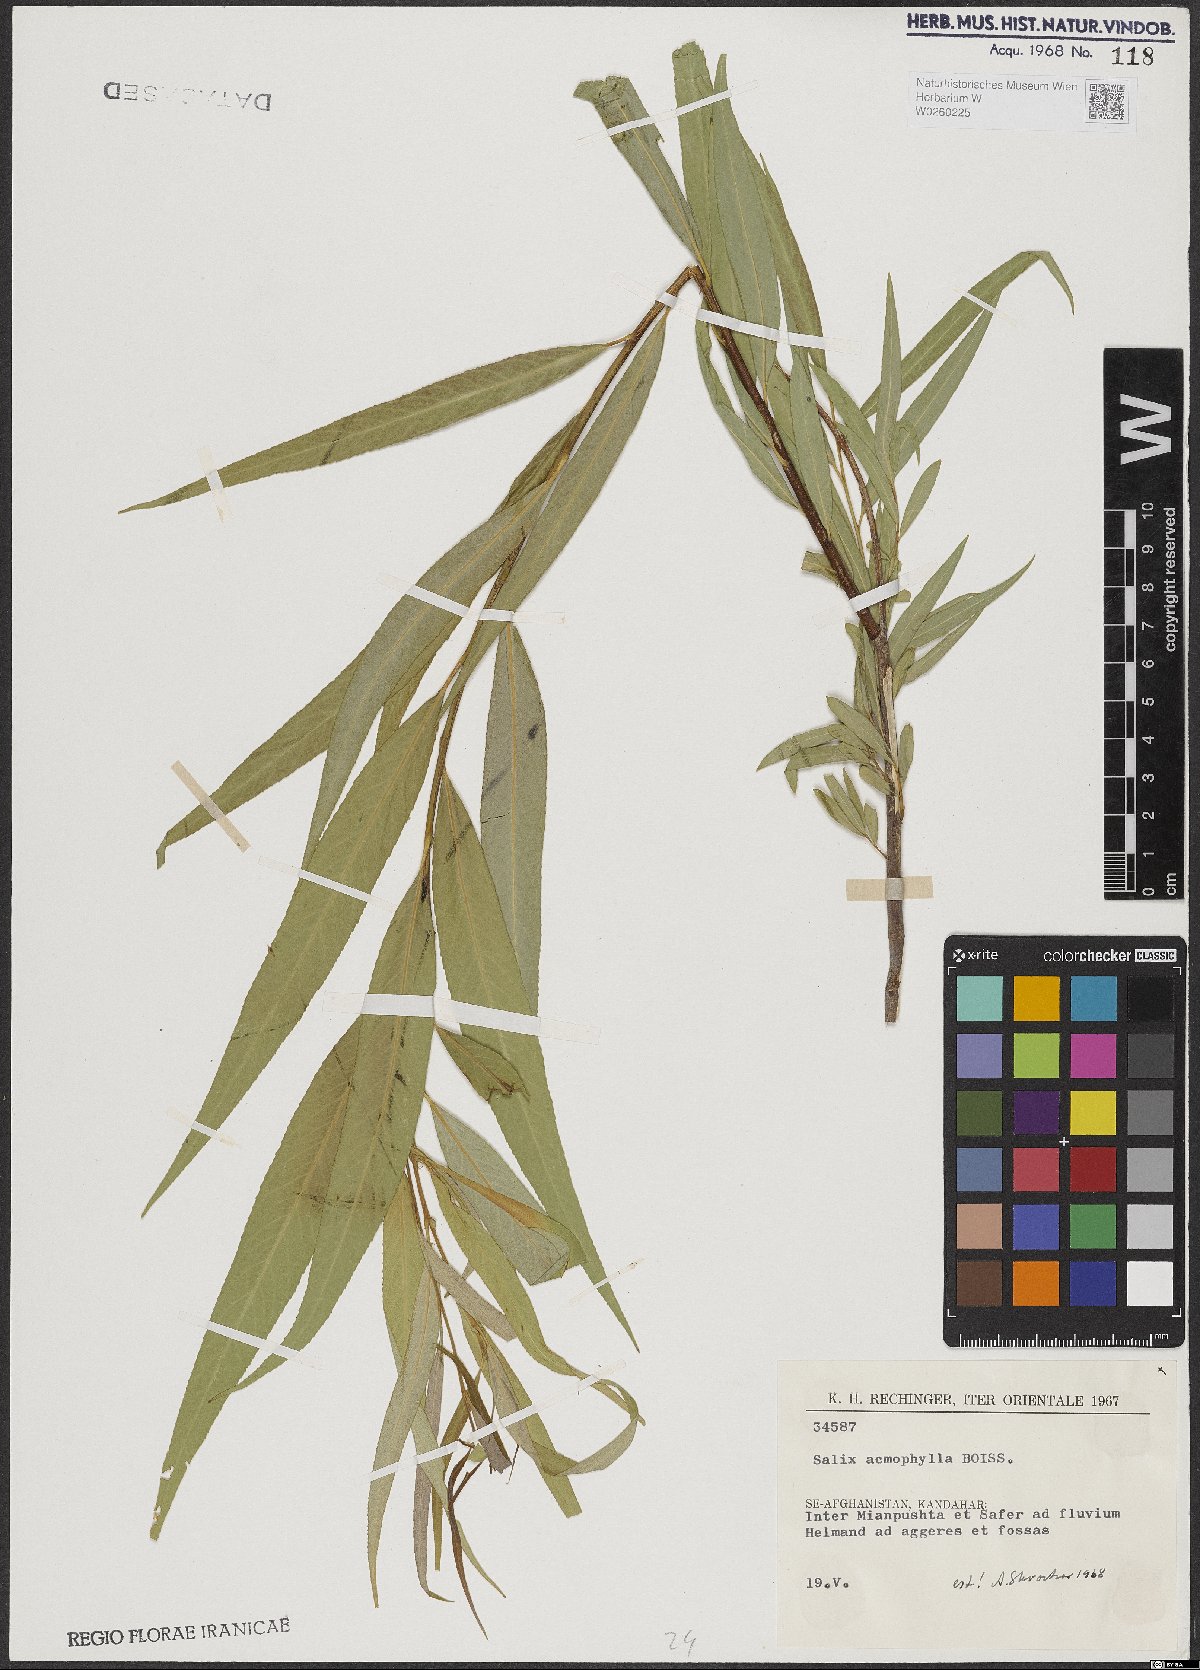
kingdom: Plantae
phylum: Tracheophyta
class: Magnoliopsida
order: Malpighiales
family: Salicaceae
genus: Salix
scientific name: Salix acmophylla
